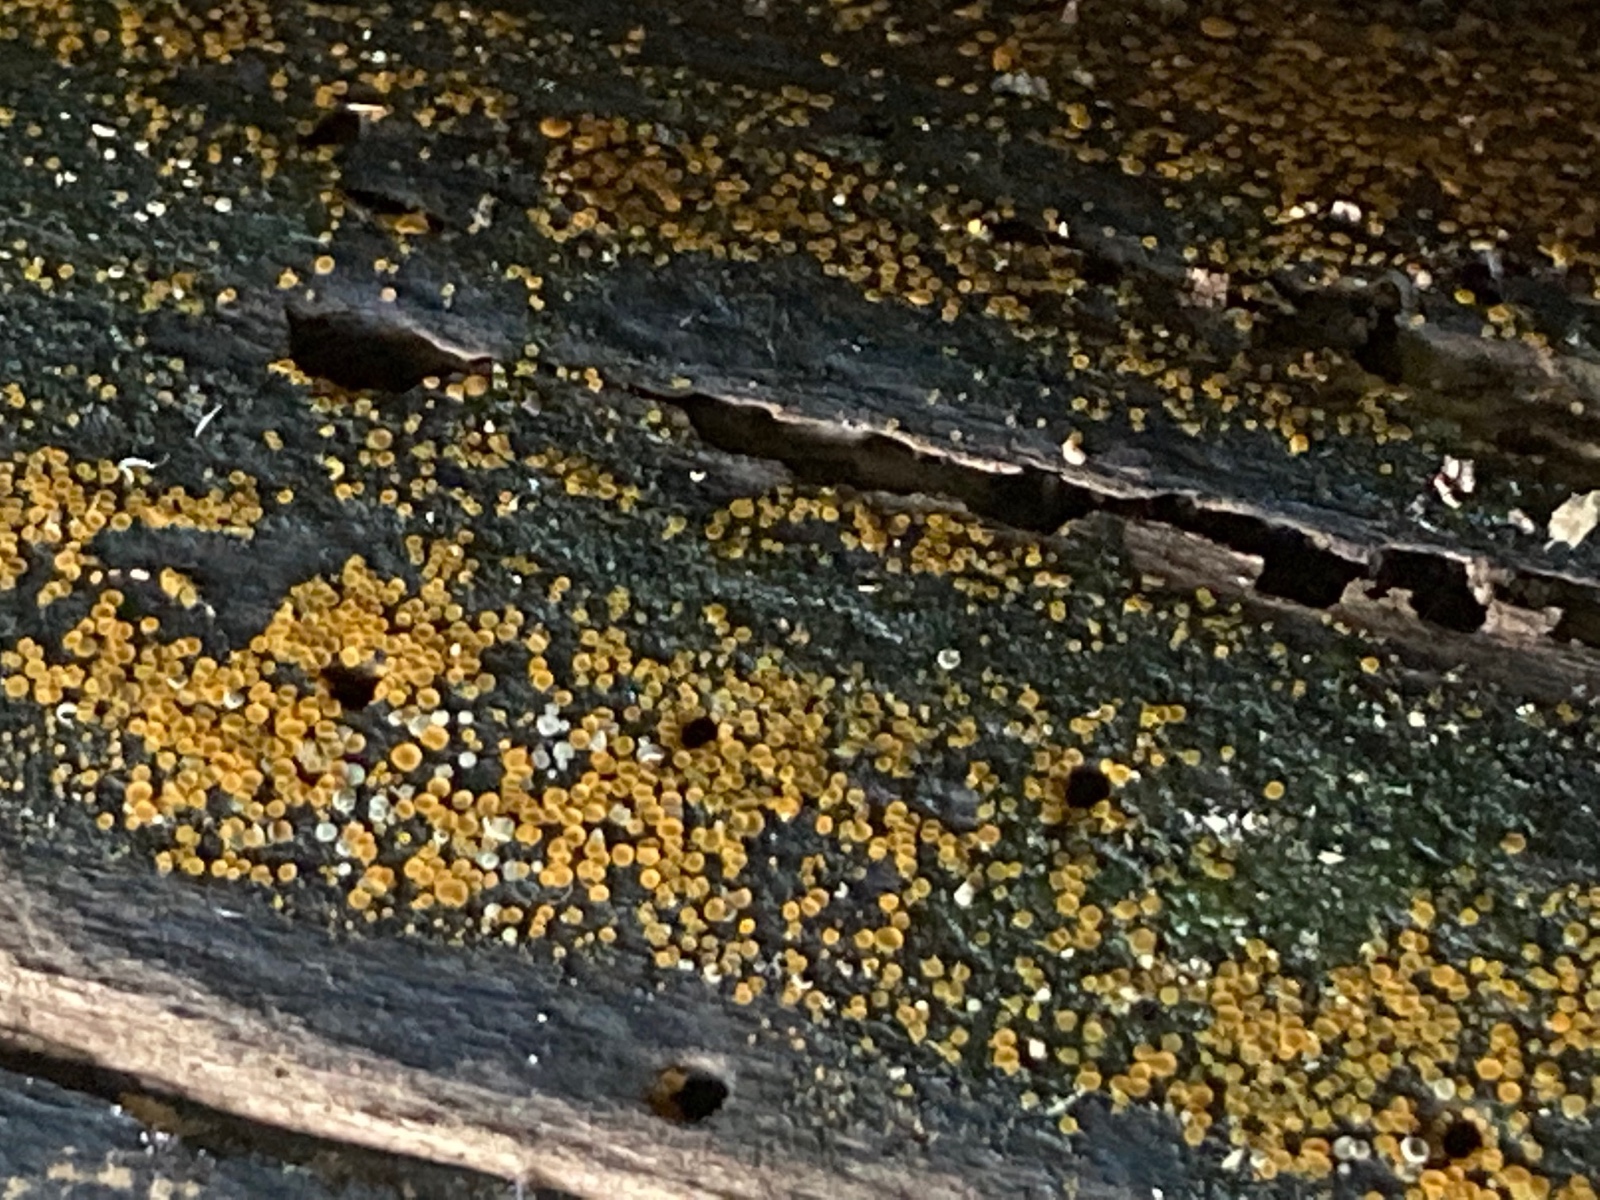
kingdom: Fungi
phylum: Ascomycota
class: Orbiliomycetes
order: Orbiliales
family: Orbiliaceae
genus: Orbilia
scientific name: Orbilia xanthostigma
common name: krumsporet voksskive
